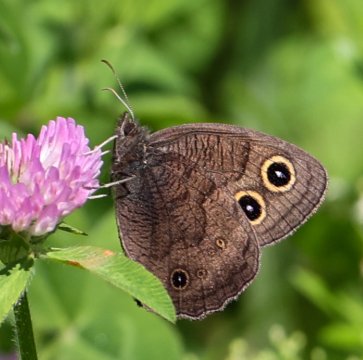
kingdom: Animalia
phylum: Arthropoda
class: Insecta
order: Lepidoptera
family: Nymphalidae
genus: Cercyonis
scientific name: Cercyonis pegala
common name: Common Wood-Nymph
